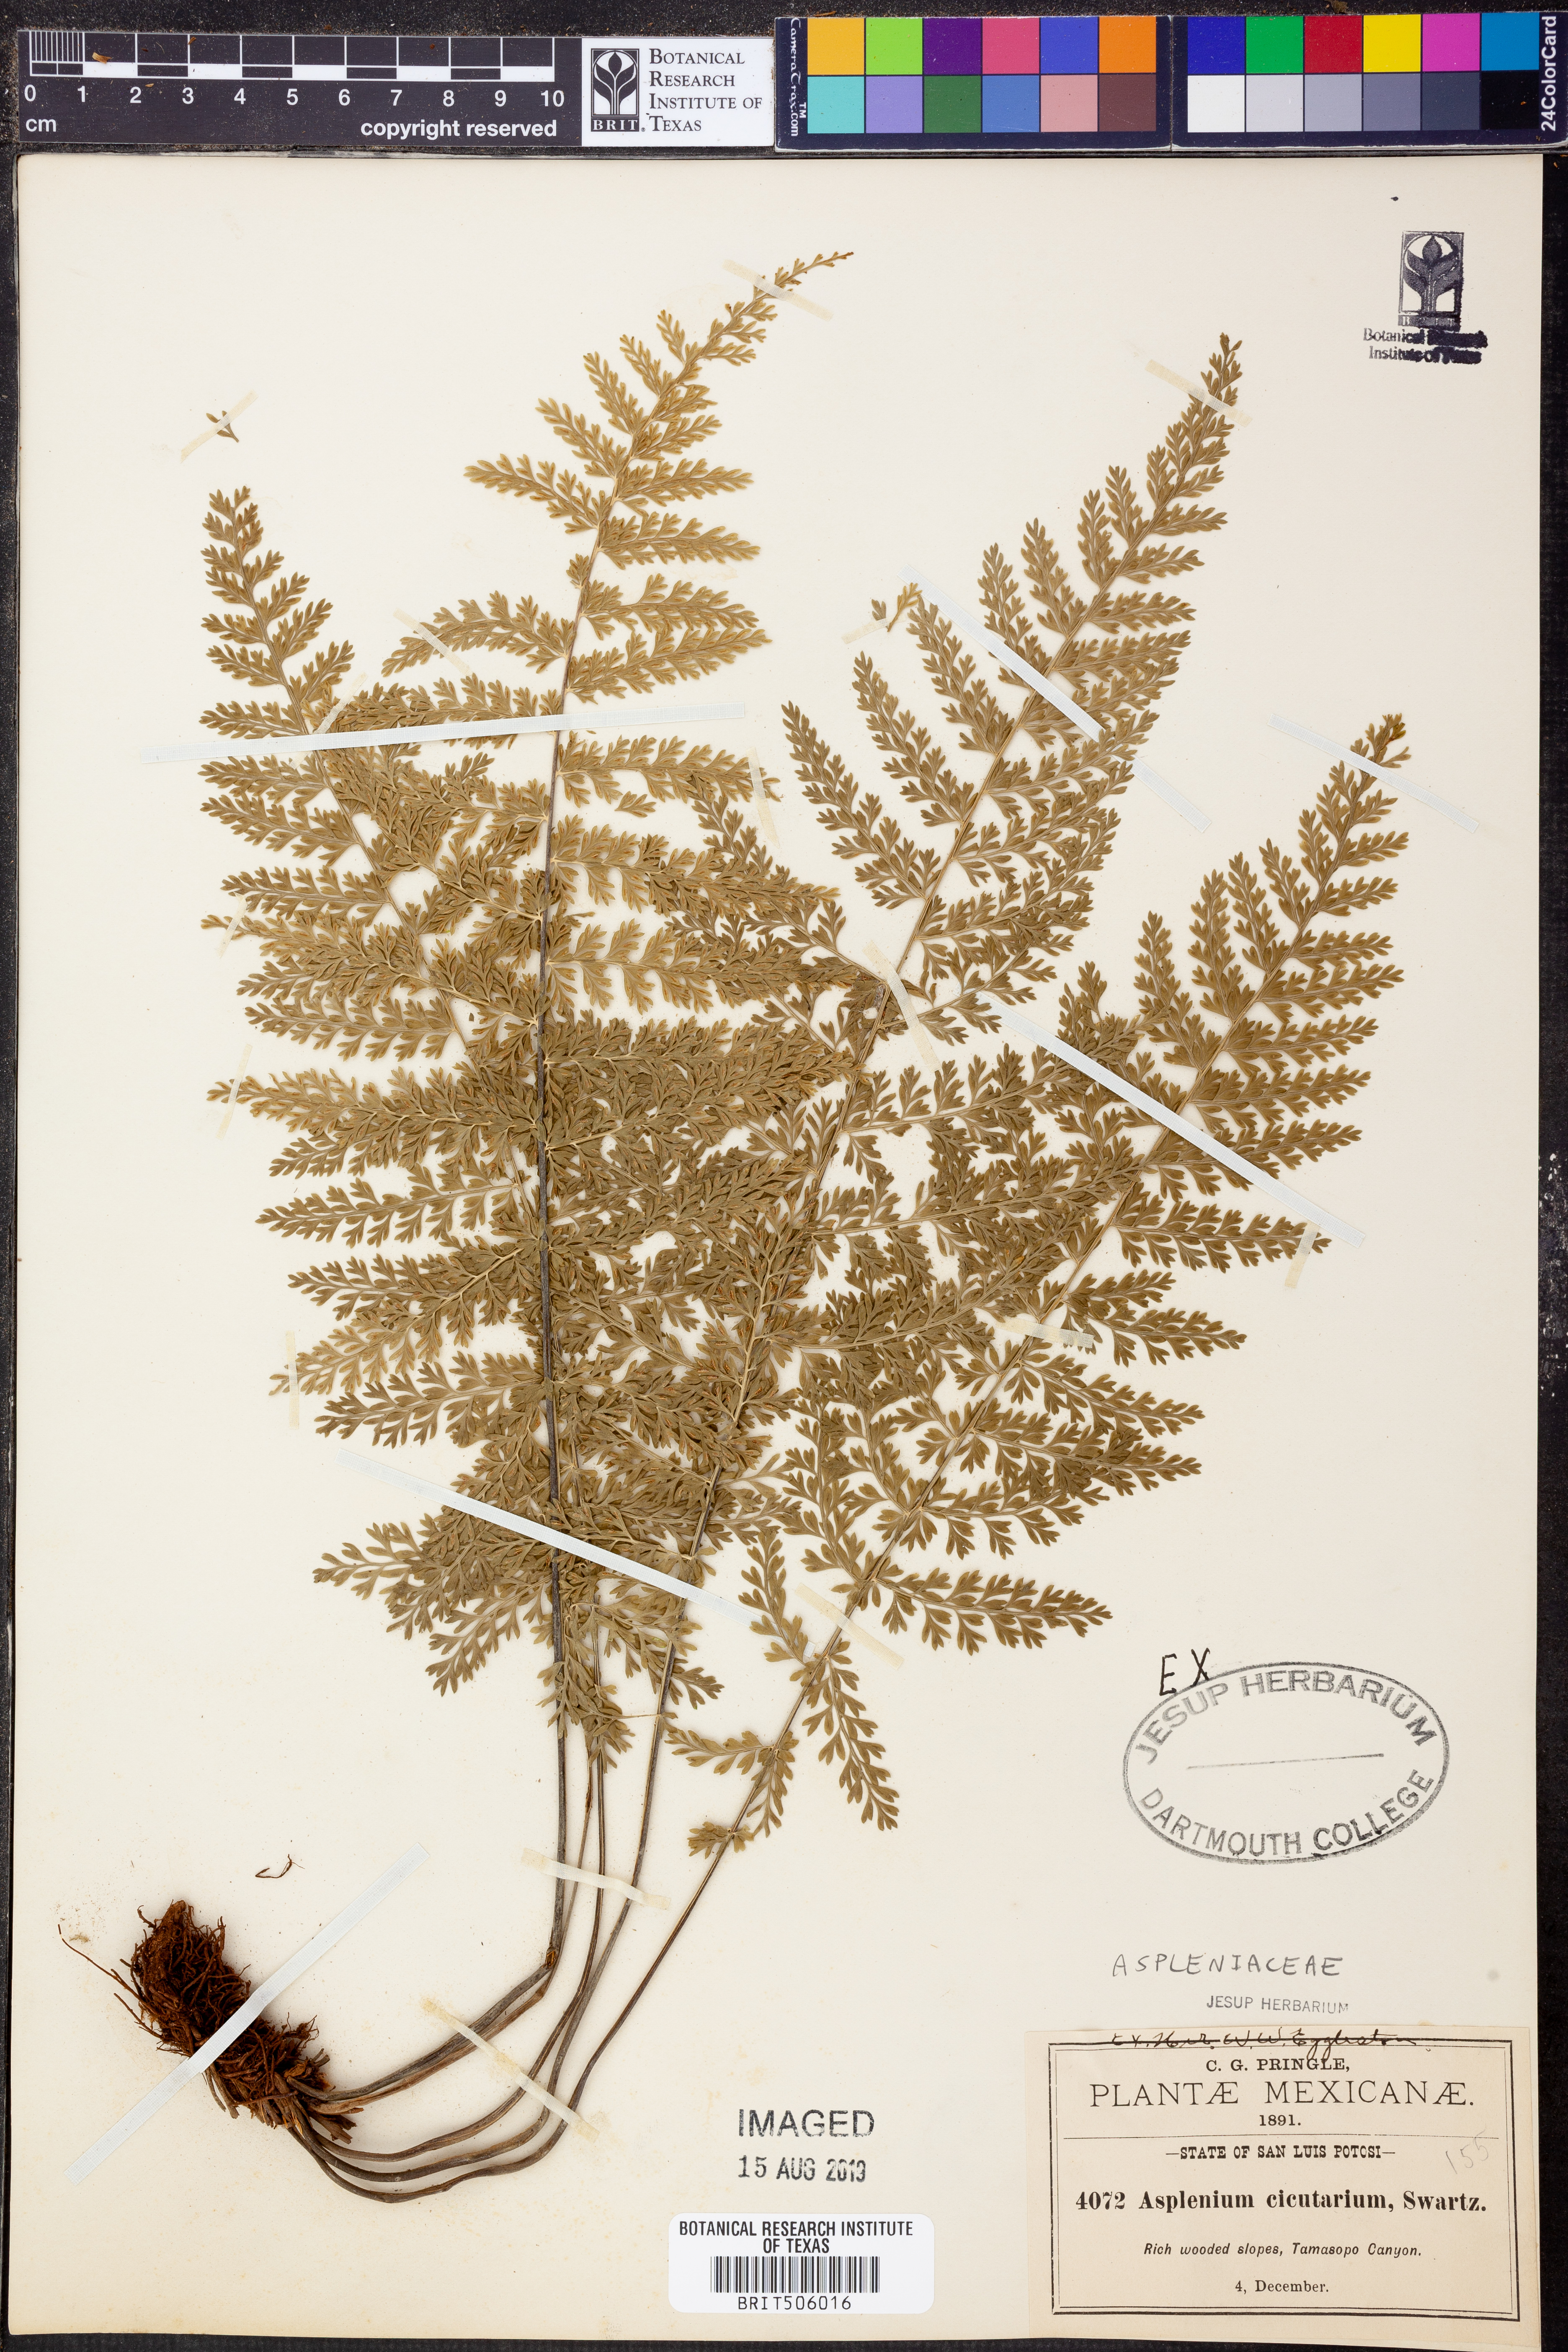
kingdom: Plantae
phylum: Tracheophyta
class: Polypodiopsida
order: Polypodiales
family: Aspleniaceae
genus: Asplenium
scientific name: Asplenium cristatum
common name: Parsley spleenwort
